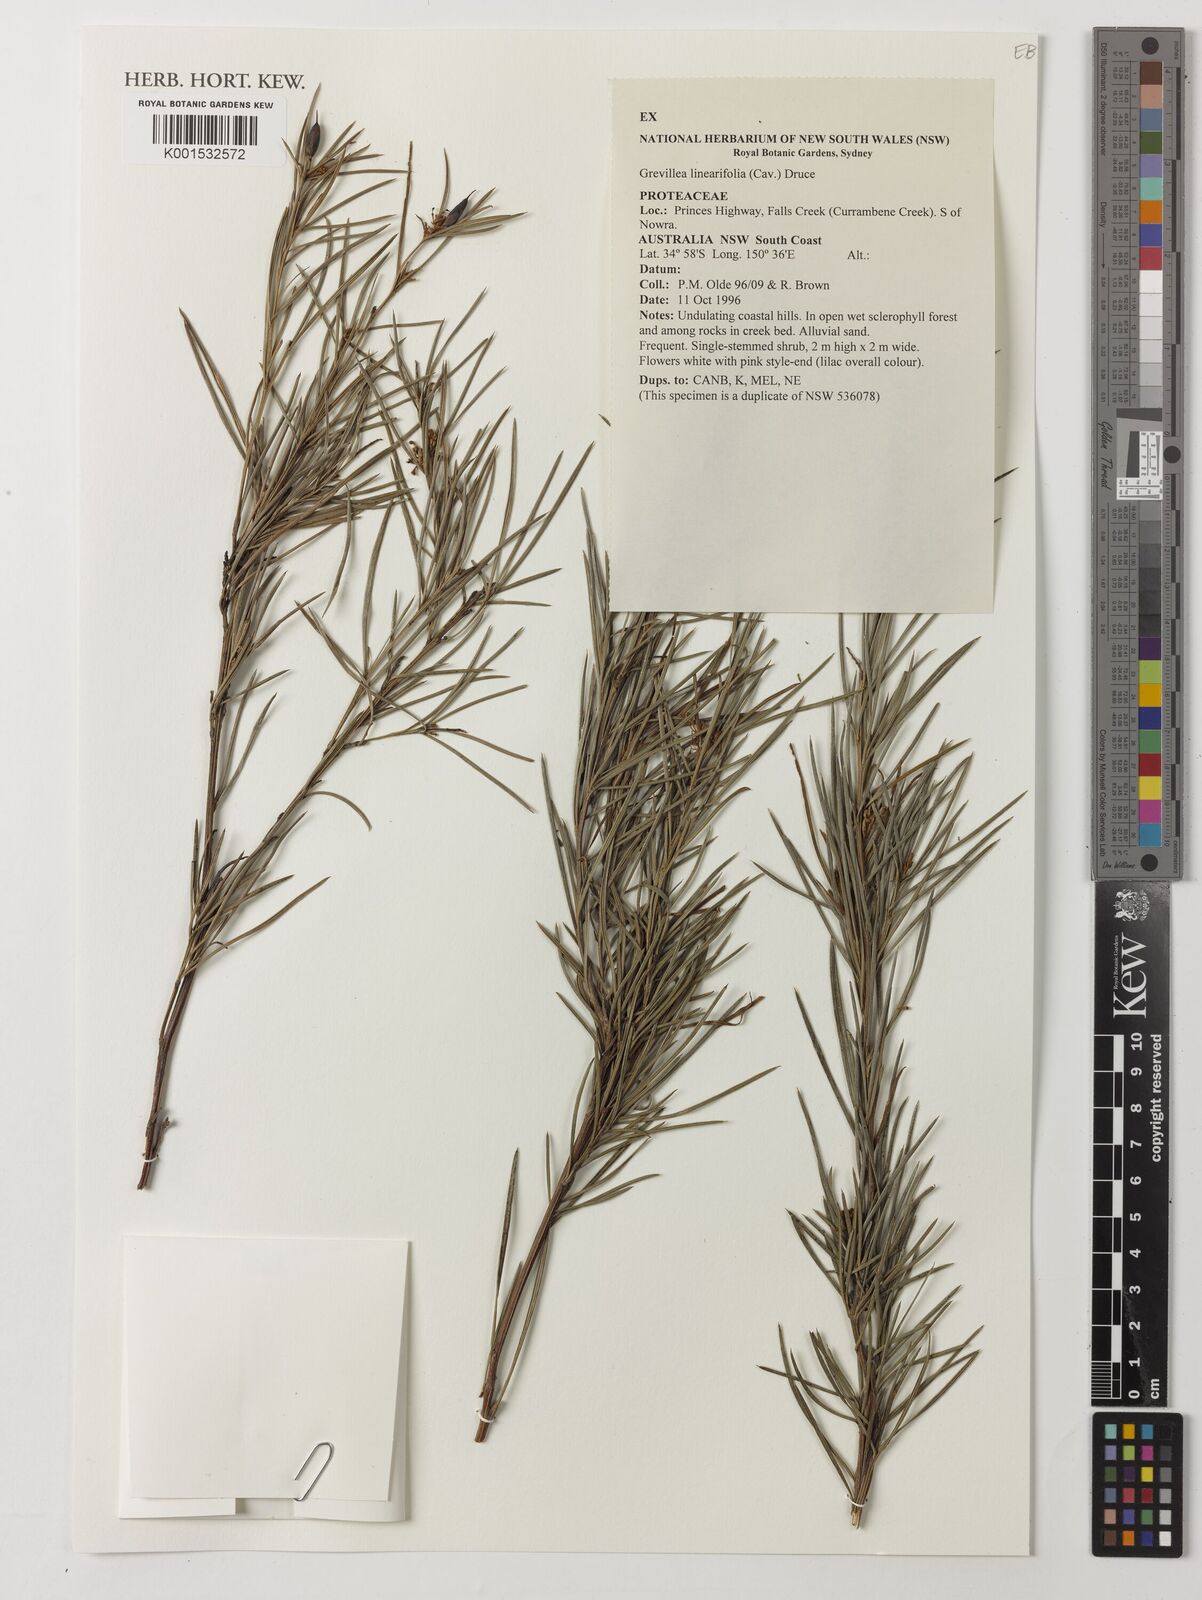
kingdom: Plantae
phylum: Tracheophyta
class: Magnoliopsida
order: Proteales
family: Proteaceae
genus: Grevillea
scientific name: Grevillea linearifolia
